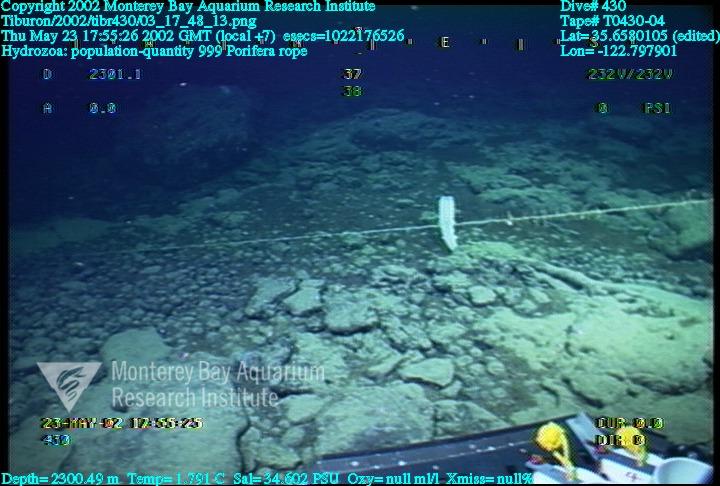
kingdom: Animalia
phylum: Porifera
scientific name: Porifera
